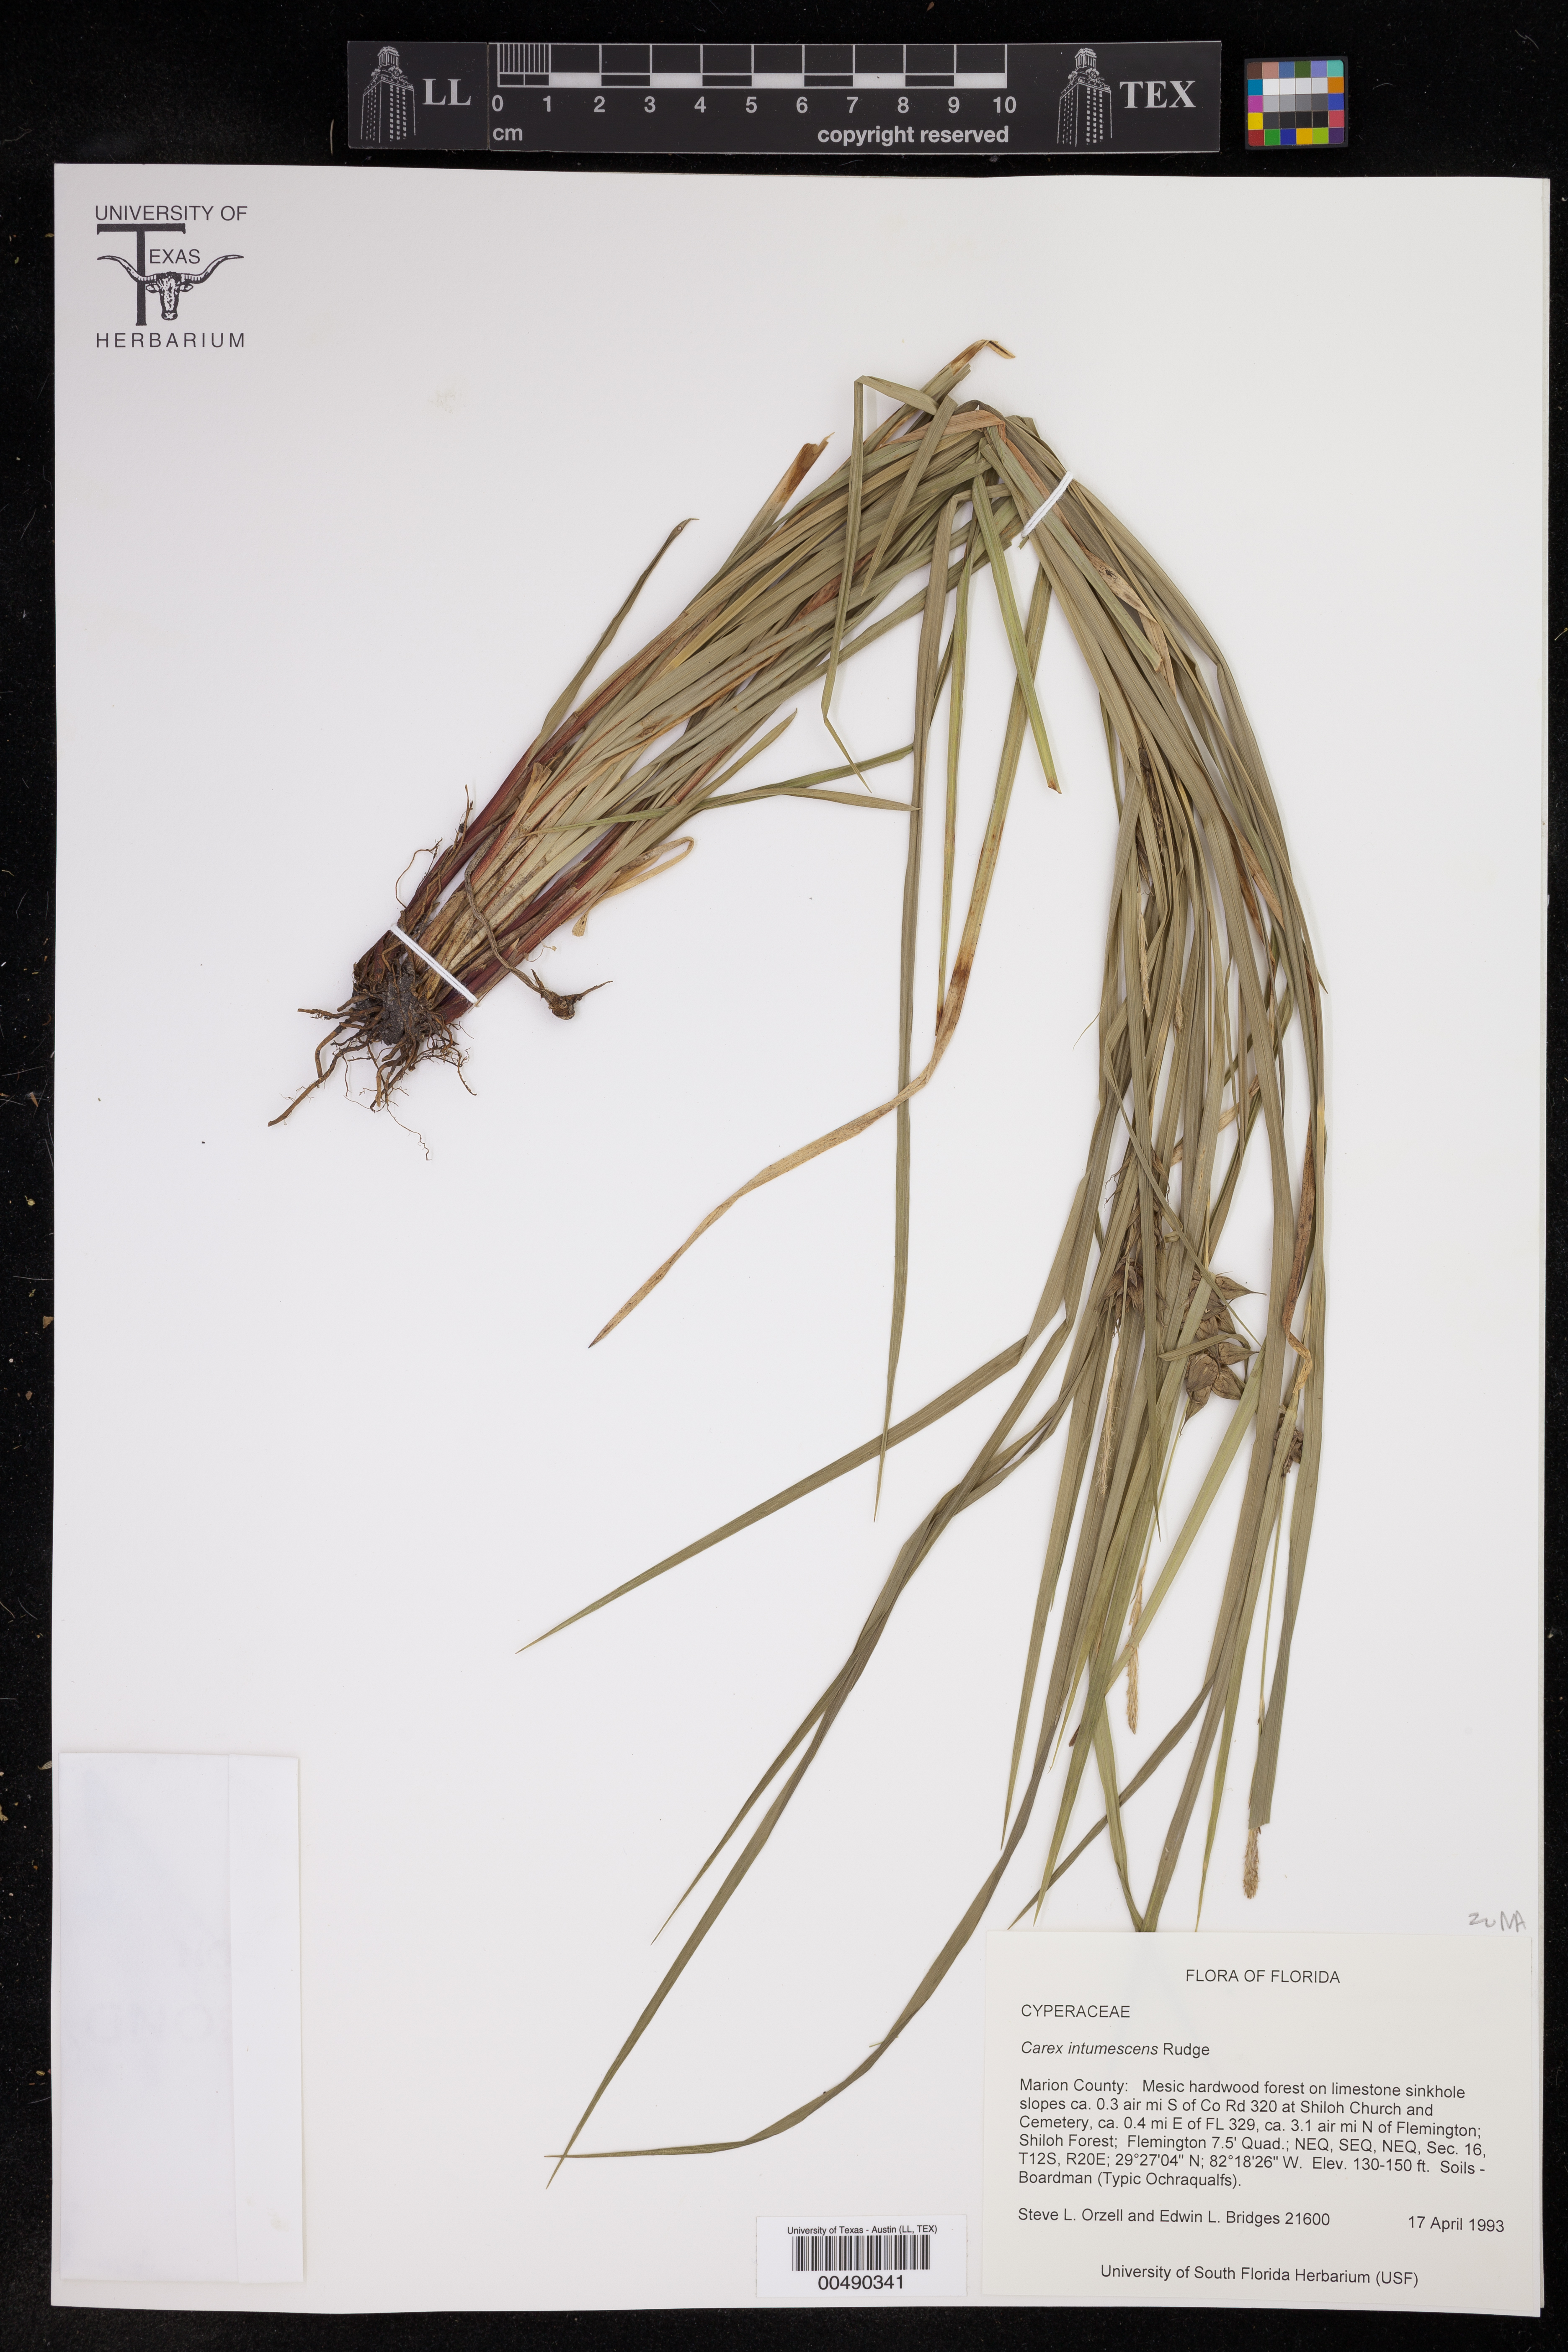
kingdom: Plantae
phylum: Tracheophyta
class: Liliopsida
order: Poales
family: Cyperaceae
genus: Carex
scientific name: Carex intumescens
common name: Greater bladder sedge
